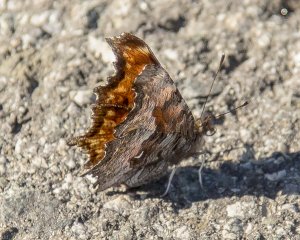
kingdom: Animalia
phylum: Arthropoda
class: Insecta
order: Lepidoptera
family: Nymphalidae
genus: Polygonia
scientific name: Polygonia gracilis
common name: Hoary Comma
